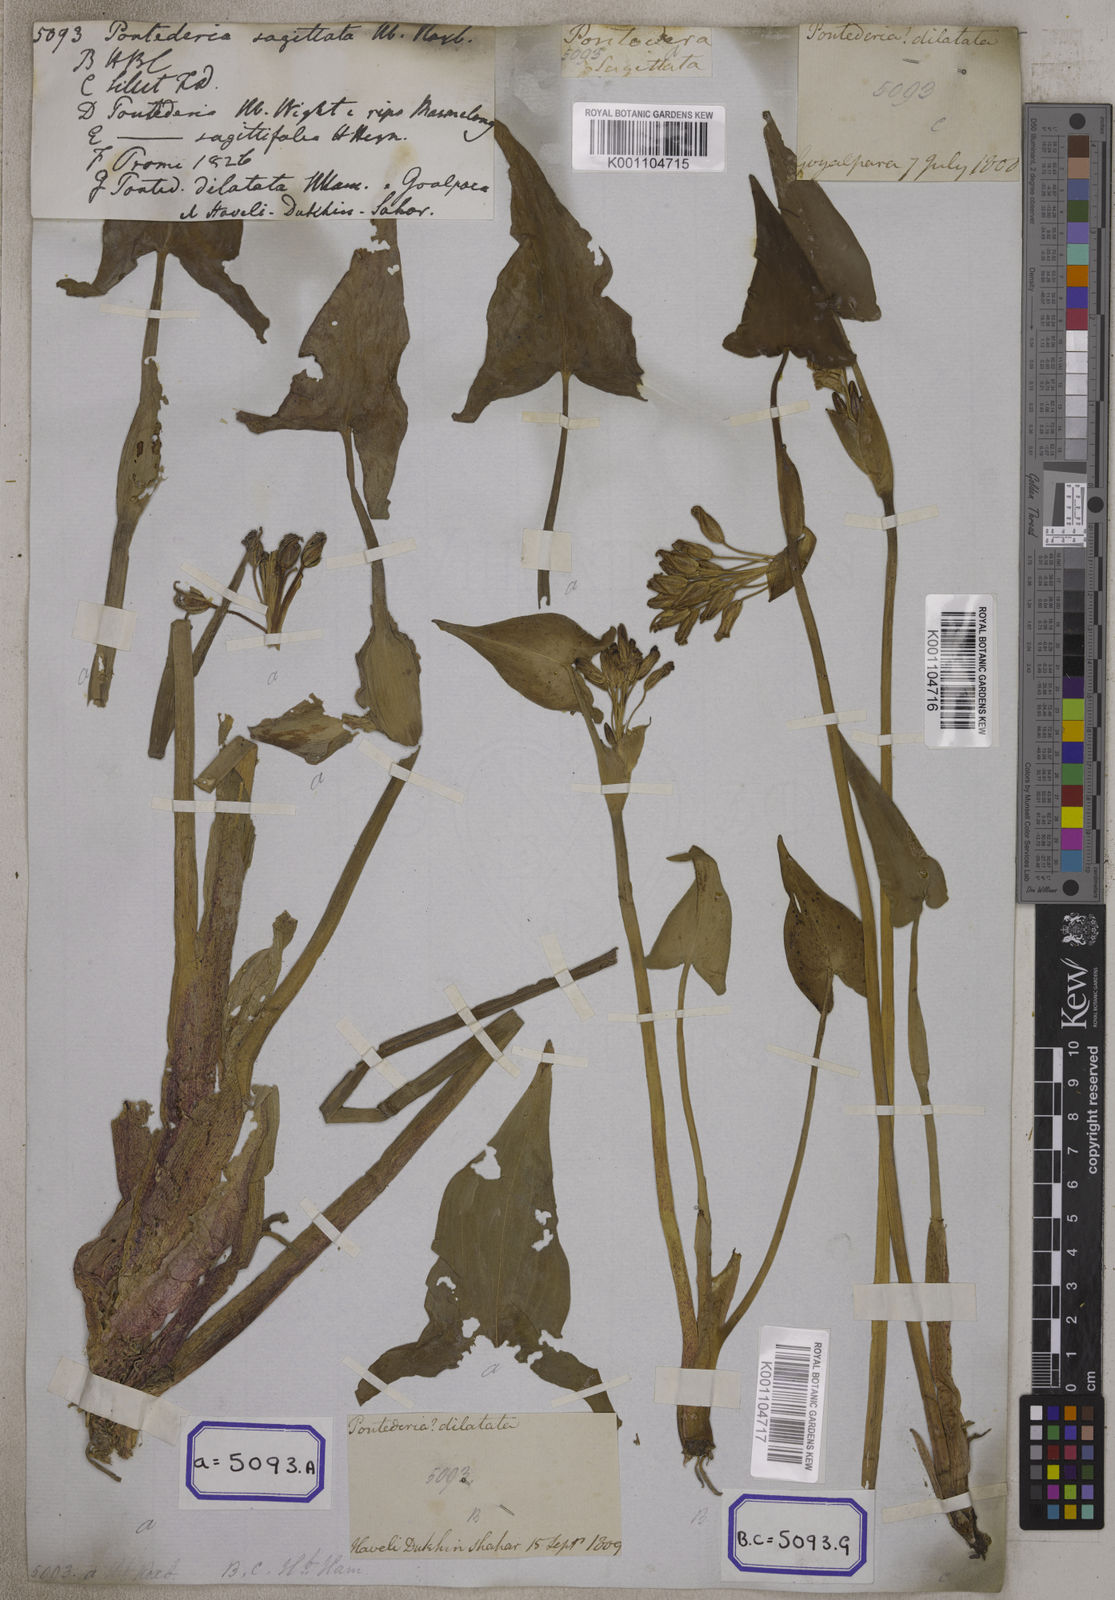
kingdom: Plantae
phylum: Tracheophyta
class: Liliopsida
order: Commelinales
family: Pontederiaceae
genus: Pontederia
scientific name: Pontederia hastata
